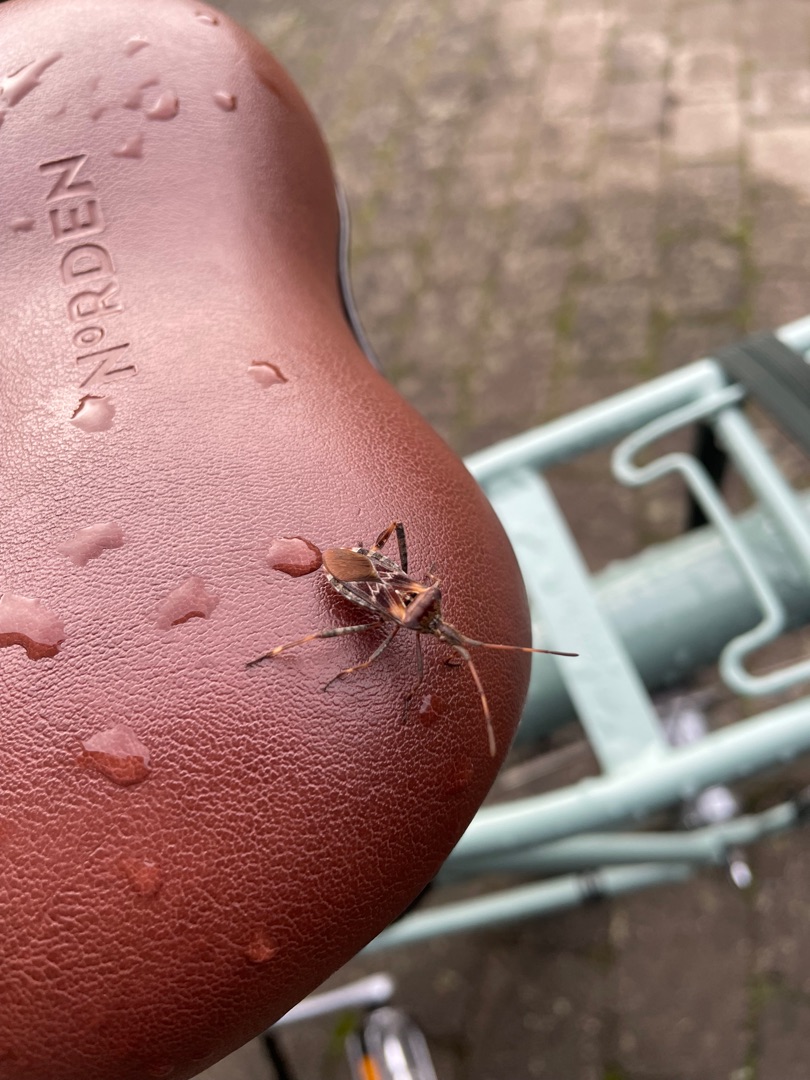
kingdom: Animalia
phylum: Arthropoda
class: Insecta
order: Hemiptera
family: Coreidae
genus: Leptoglossus
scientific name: Leptoglossus occidentalis
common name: Amerikansk fyrretæge
